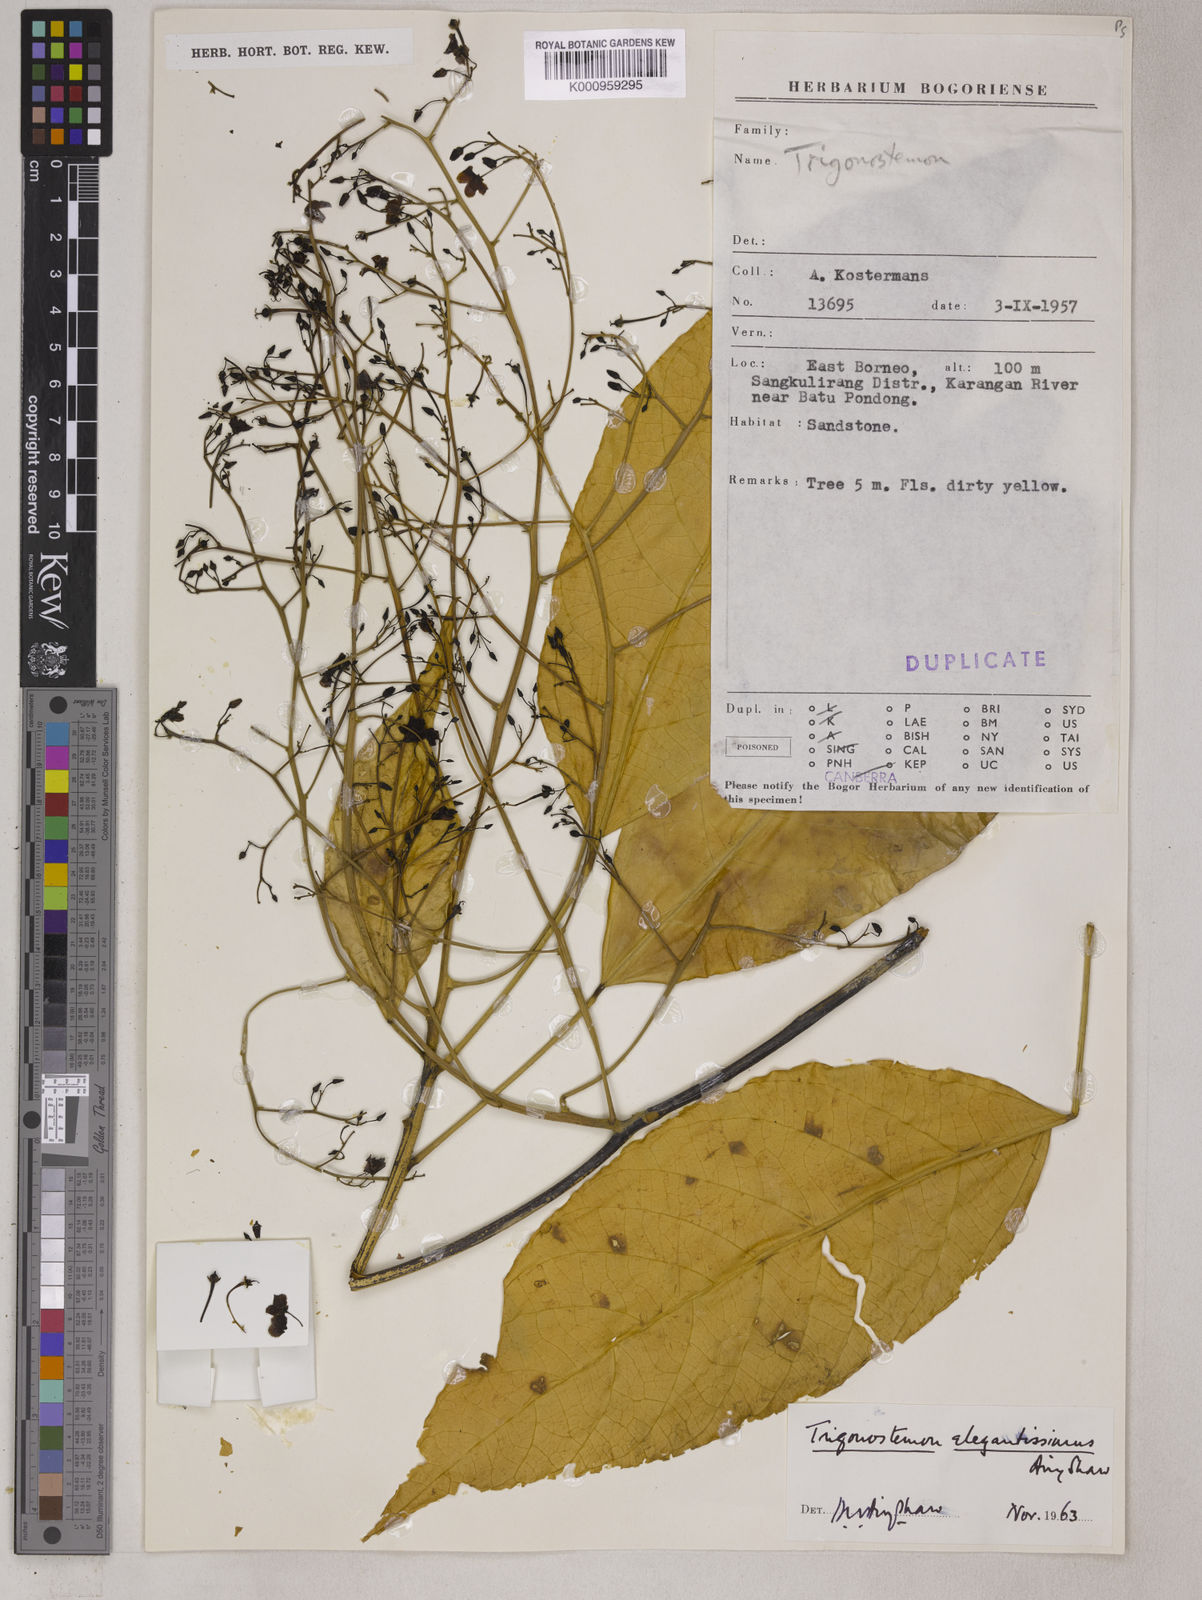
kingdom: Plantae
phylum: Tracheophyta
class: Magnoliopsida
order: Malpighiales
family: Euphorbiaceae
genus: Trigonostemon
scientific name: Trigonostemon viridissimus
